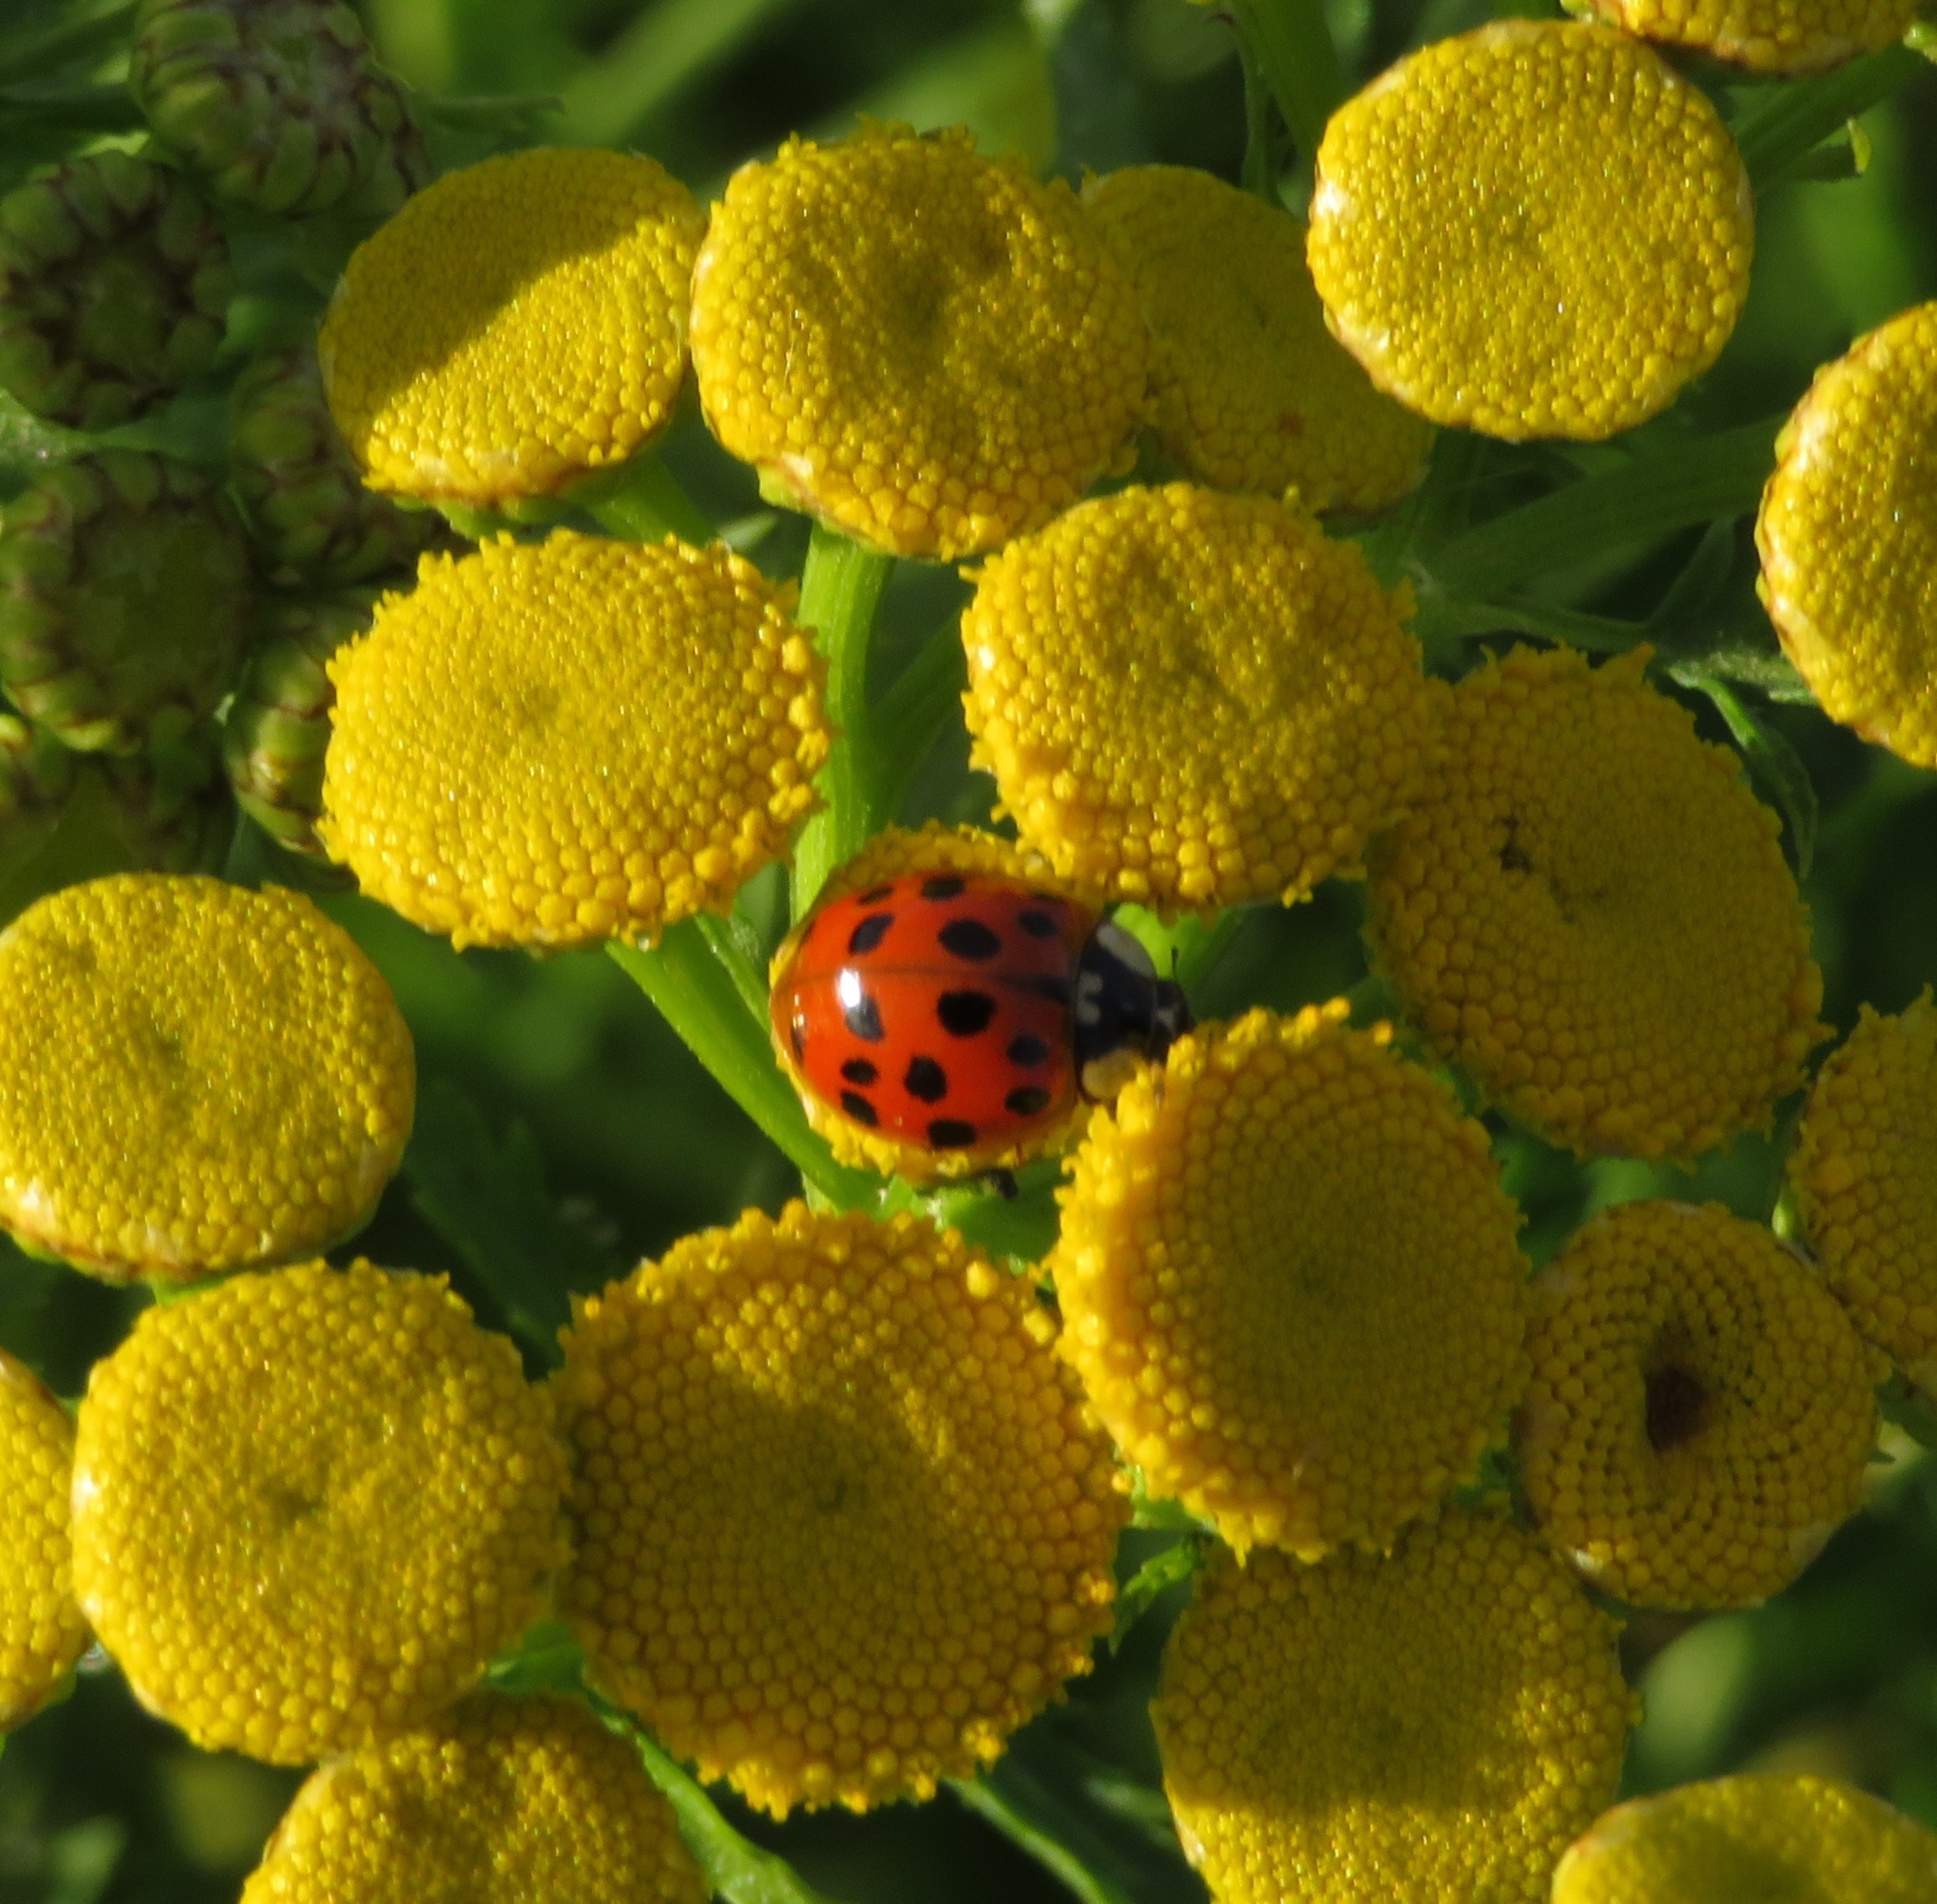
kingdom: Animalia
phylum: Arthropoda
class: Insecta
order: Coleoptera
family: Coccinellidae
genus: Harmonia
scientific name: Harmonia axyridis
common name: Harlekinmariehøne
